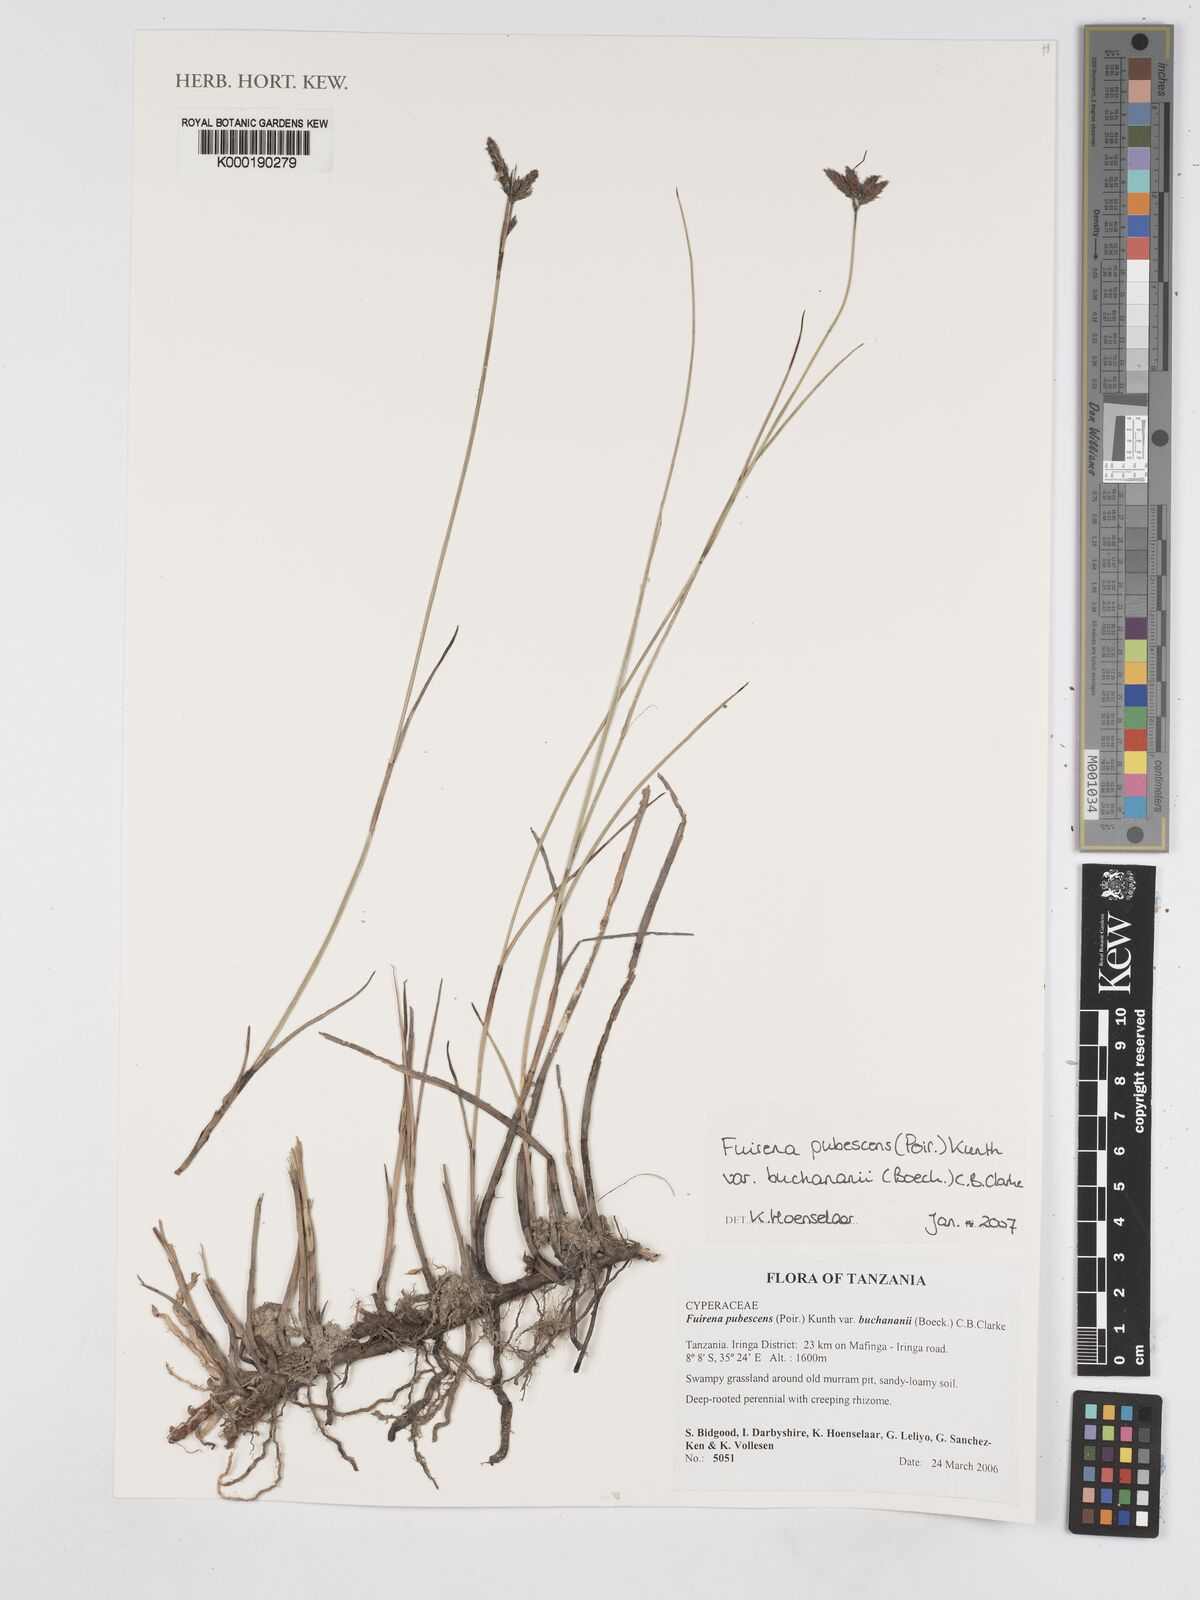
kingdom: Plantae
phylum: Tracheophyta
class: Liliopsida
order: Poales
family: Cyperaceae
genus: Fuirena
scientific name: Fuirena pubescens
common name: Hairy sedge
